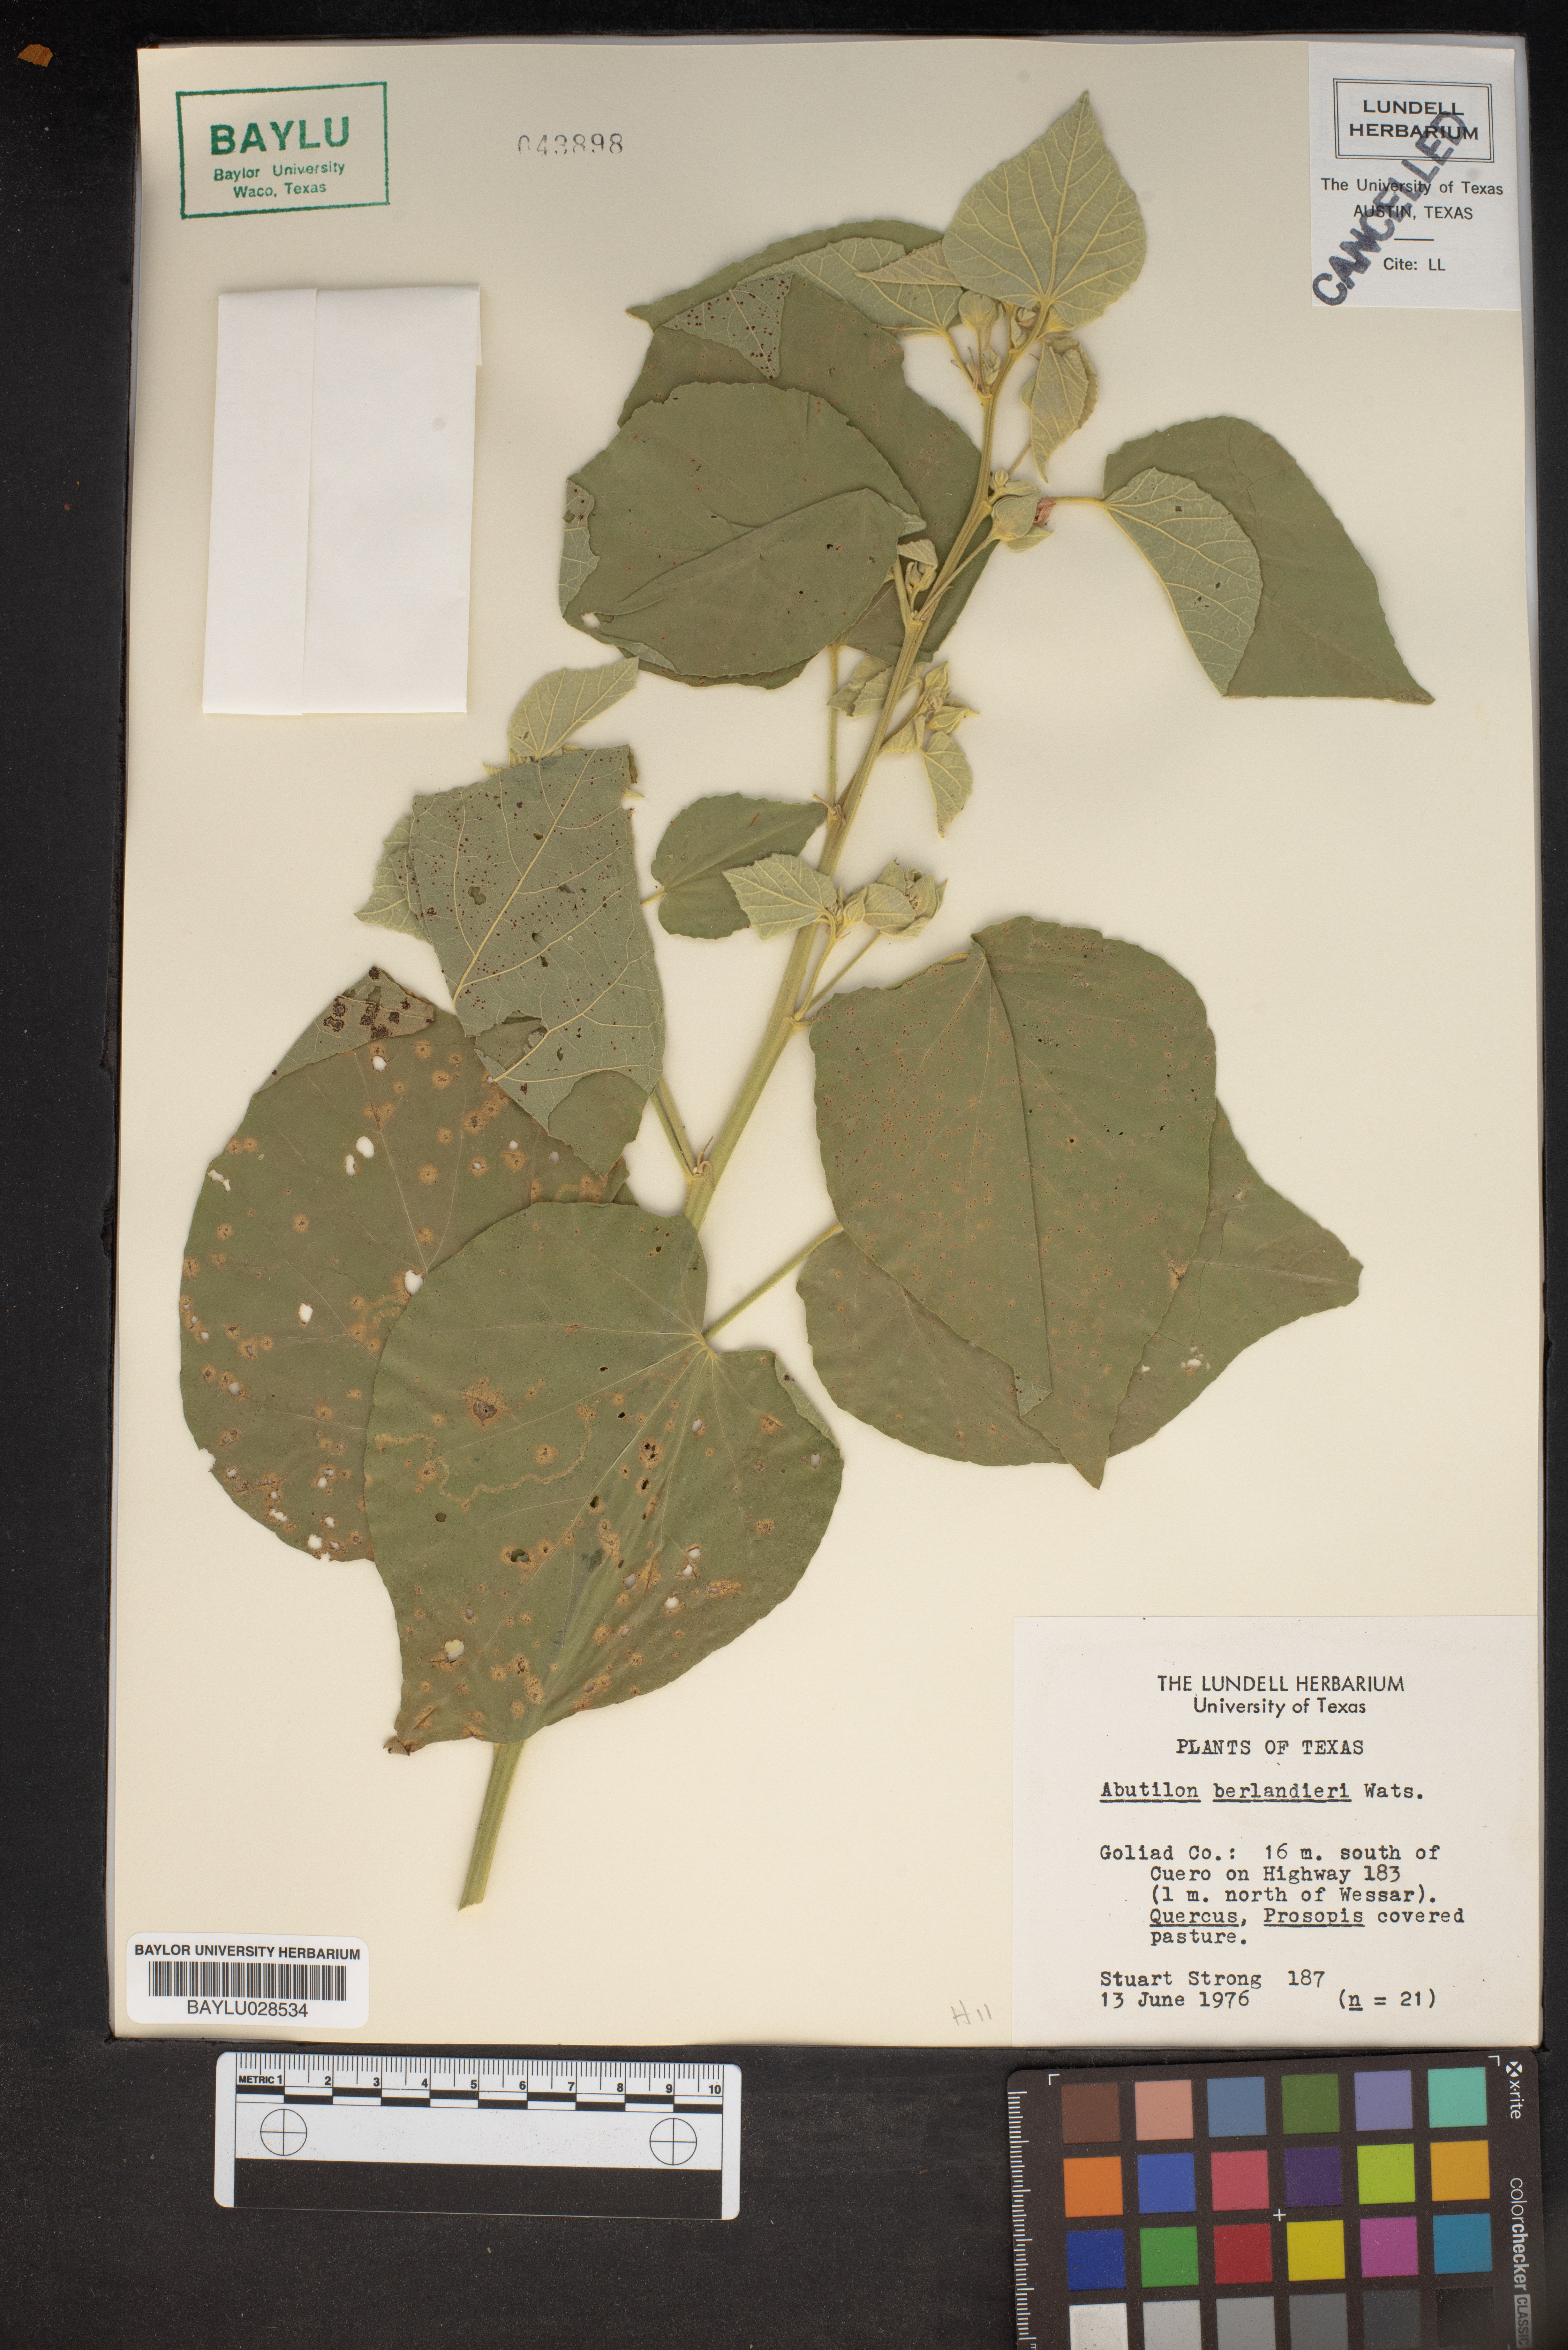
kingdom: Plantae
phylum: Tracheophyta
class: Magnoliopsida
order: Malvales
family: Malvaceae
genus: Abutilon
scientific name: Abutilon berlandieri
